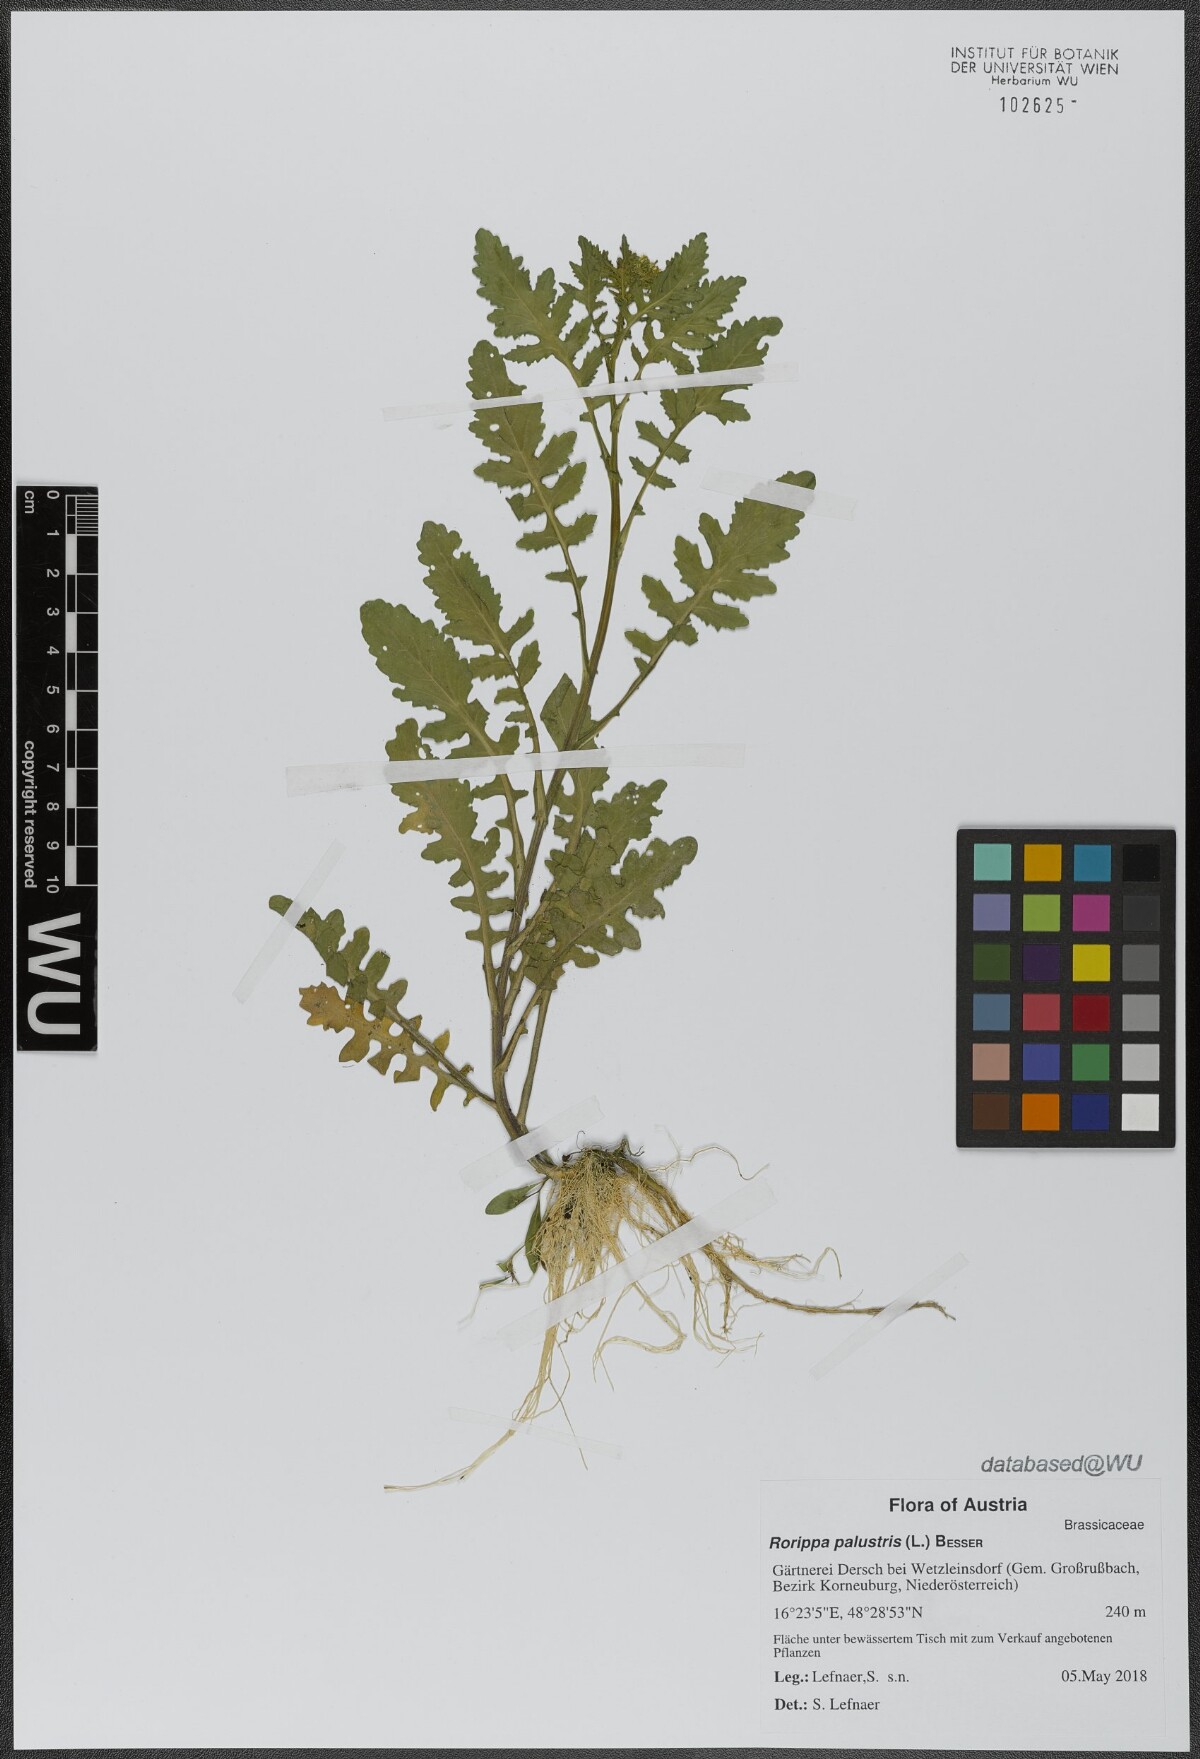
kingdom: Plantae
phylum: Tracheophyta
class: Magnoliopsida
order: Brassicales
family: Brassicaceae
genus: Rorippa
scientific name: Rorippa palustris
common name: Marsh yellow-cress
